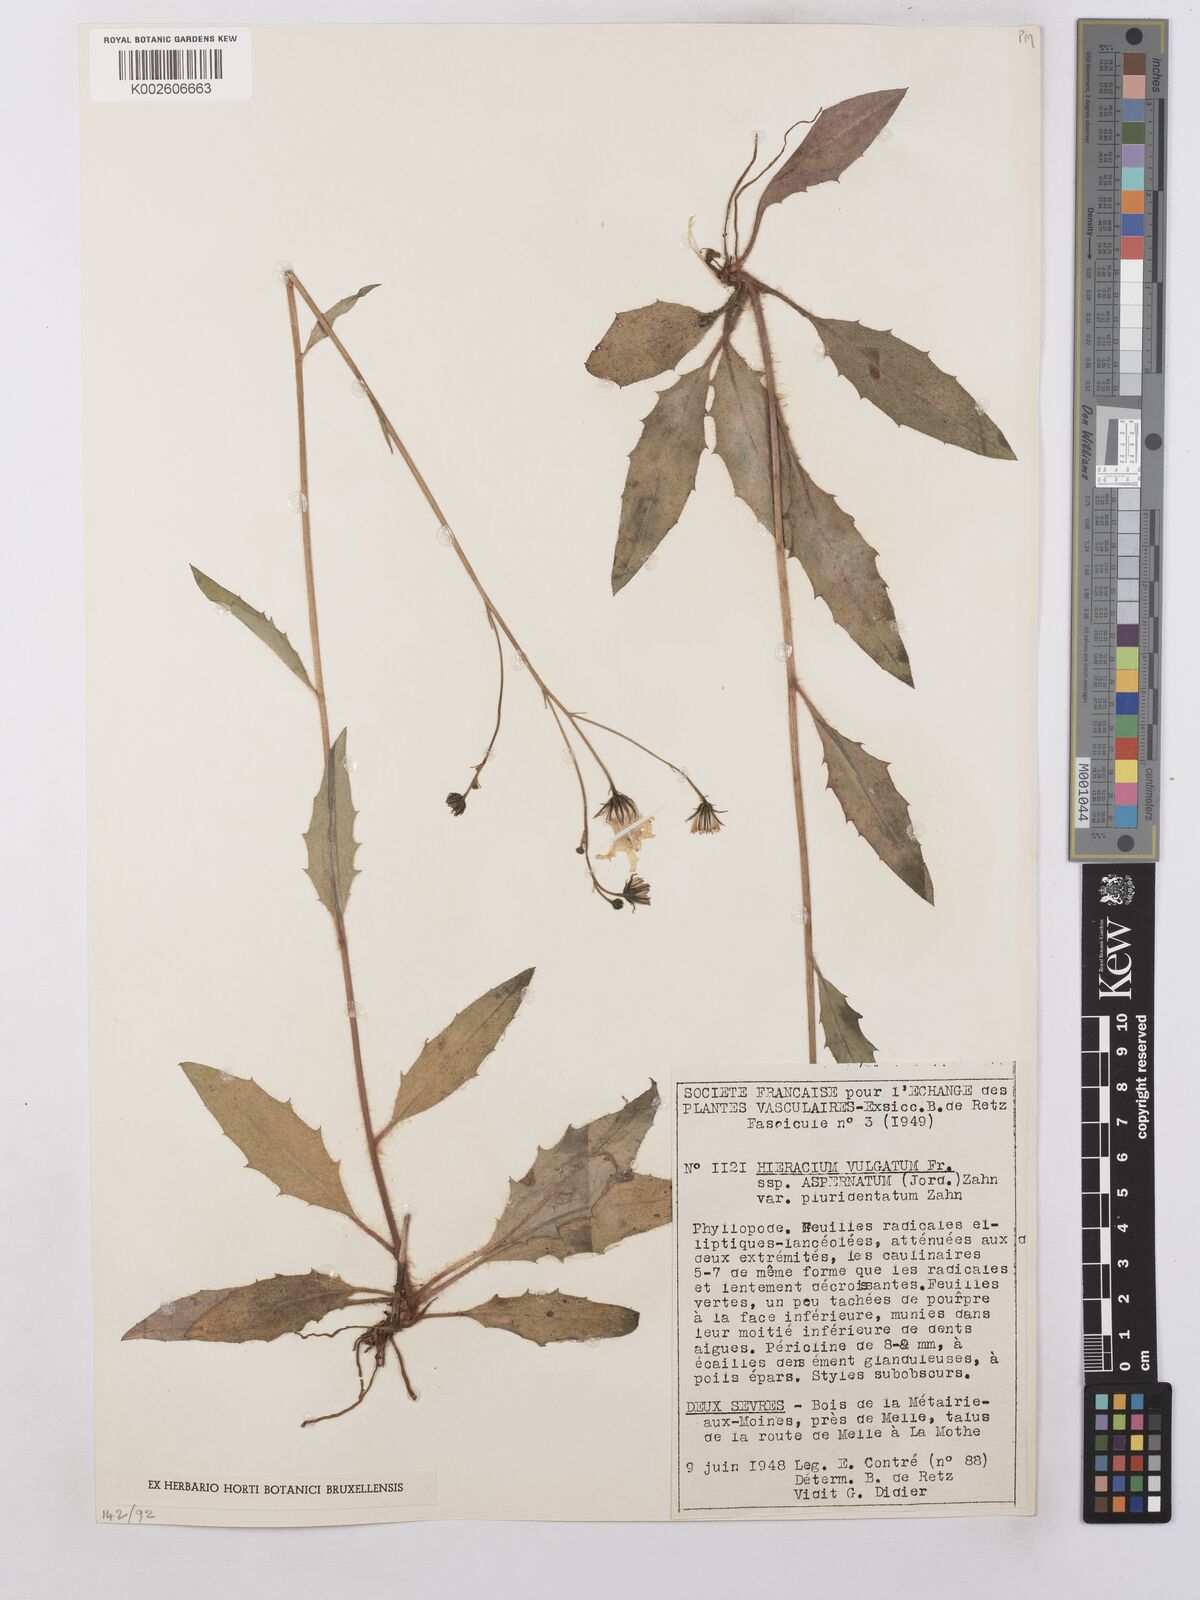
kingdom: Plantae
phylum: Tracheophyta
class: Magnoliopsida
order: Asterales
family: Asteraceae
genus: Hieracium
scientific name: Hieracium lachenalii
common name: Common hawkweed
